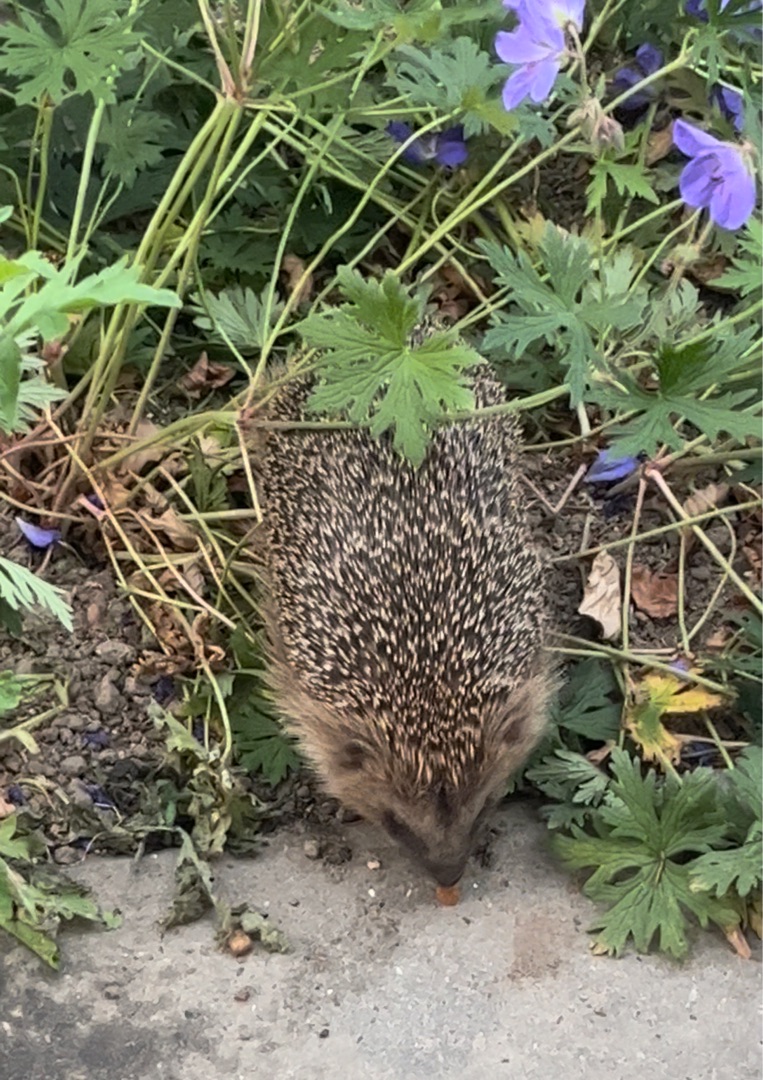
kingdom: Animalia
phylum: Chordata
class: Mammalia
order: Erinaceomorpha
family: Erinaceidae
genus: Erinaceus
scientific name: Erinaceus europaeus
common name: Pindsvin
